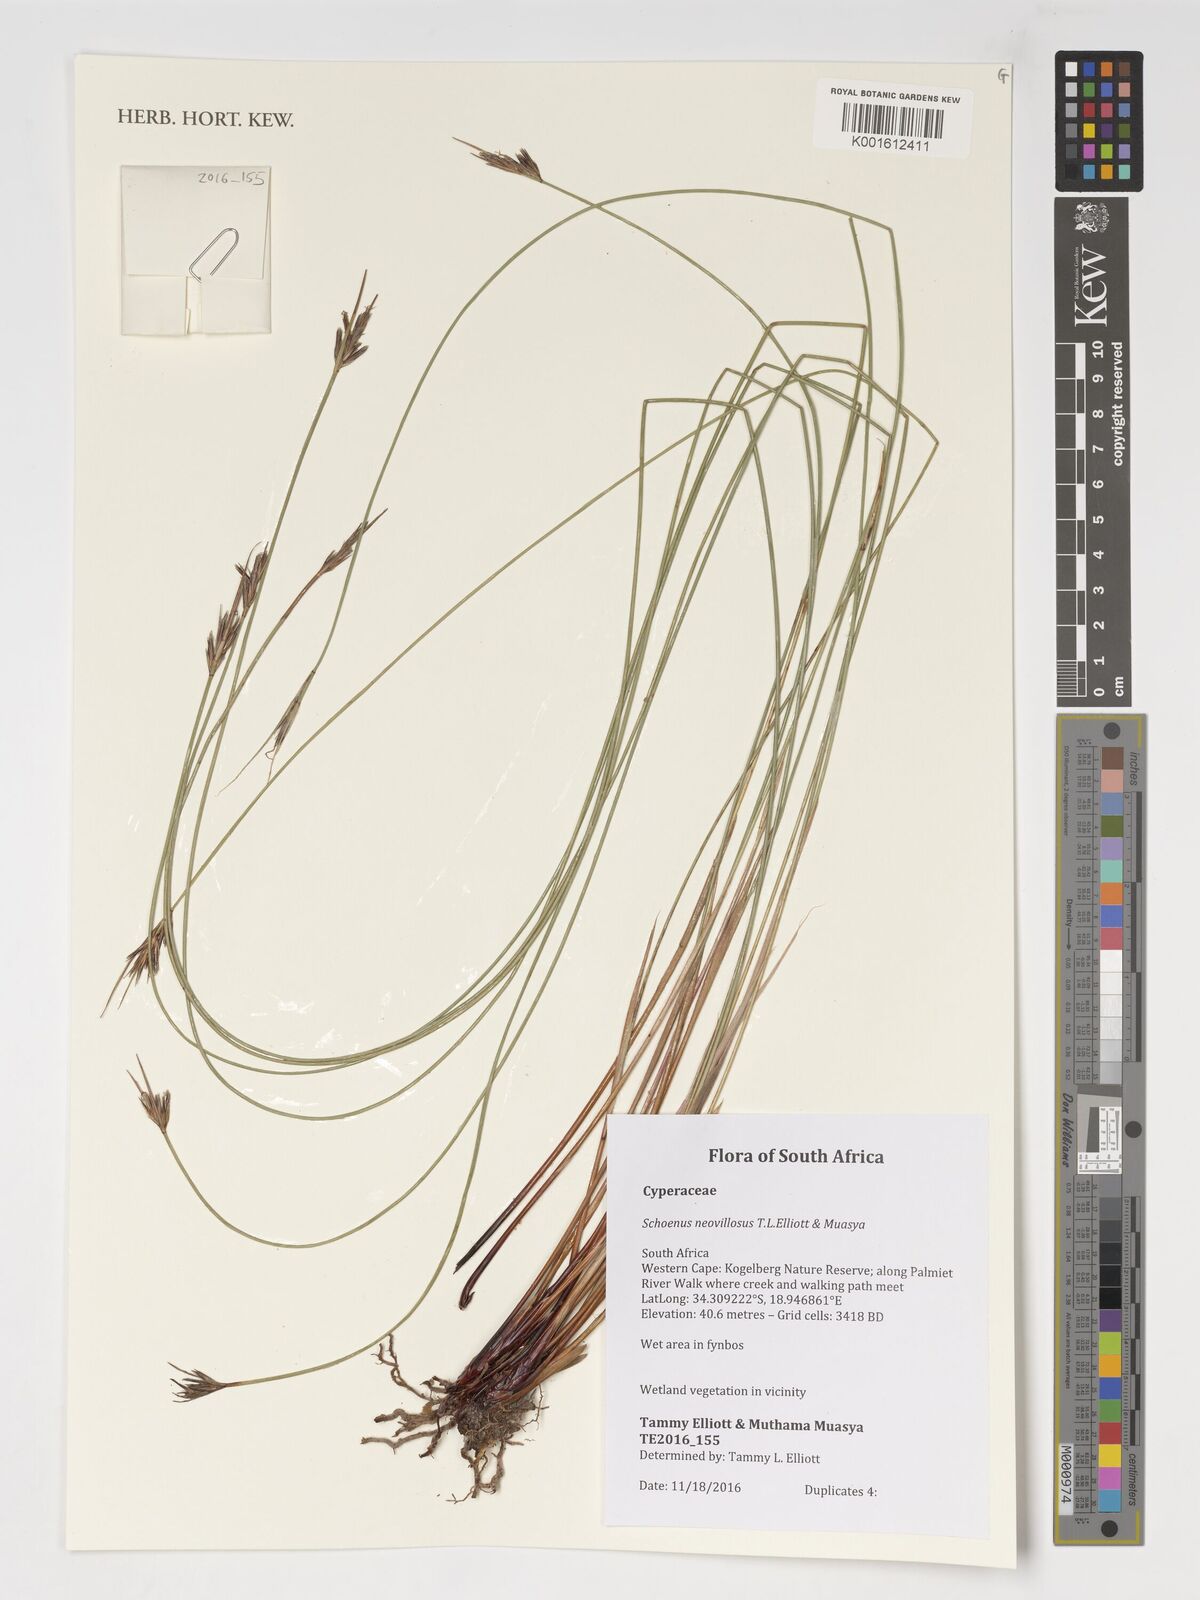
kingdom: Plantae
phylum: Tracheophyta
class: Liliopsida
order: Poales
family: Cyperaceae
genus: Schoenus
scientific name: Schoenus neovillosus
